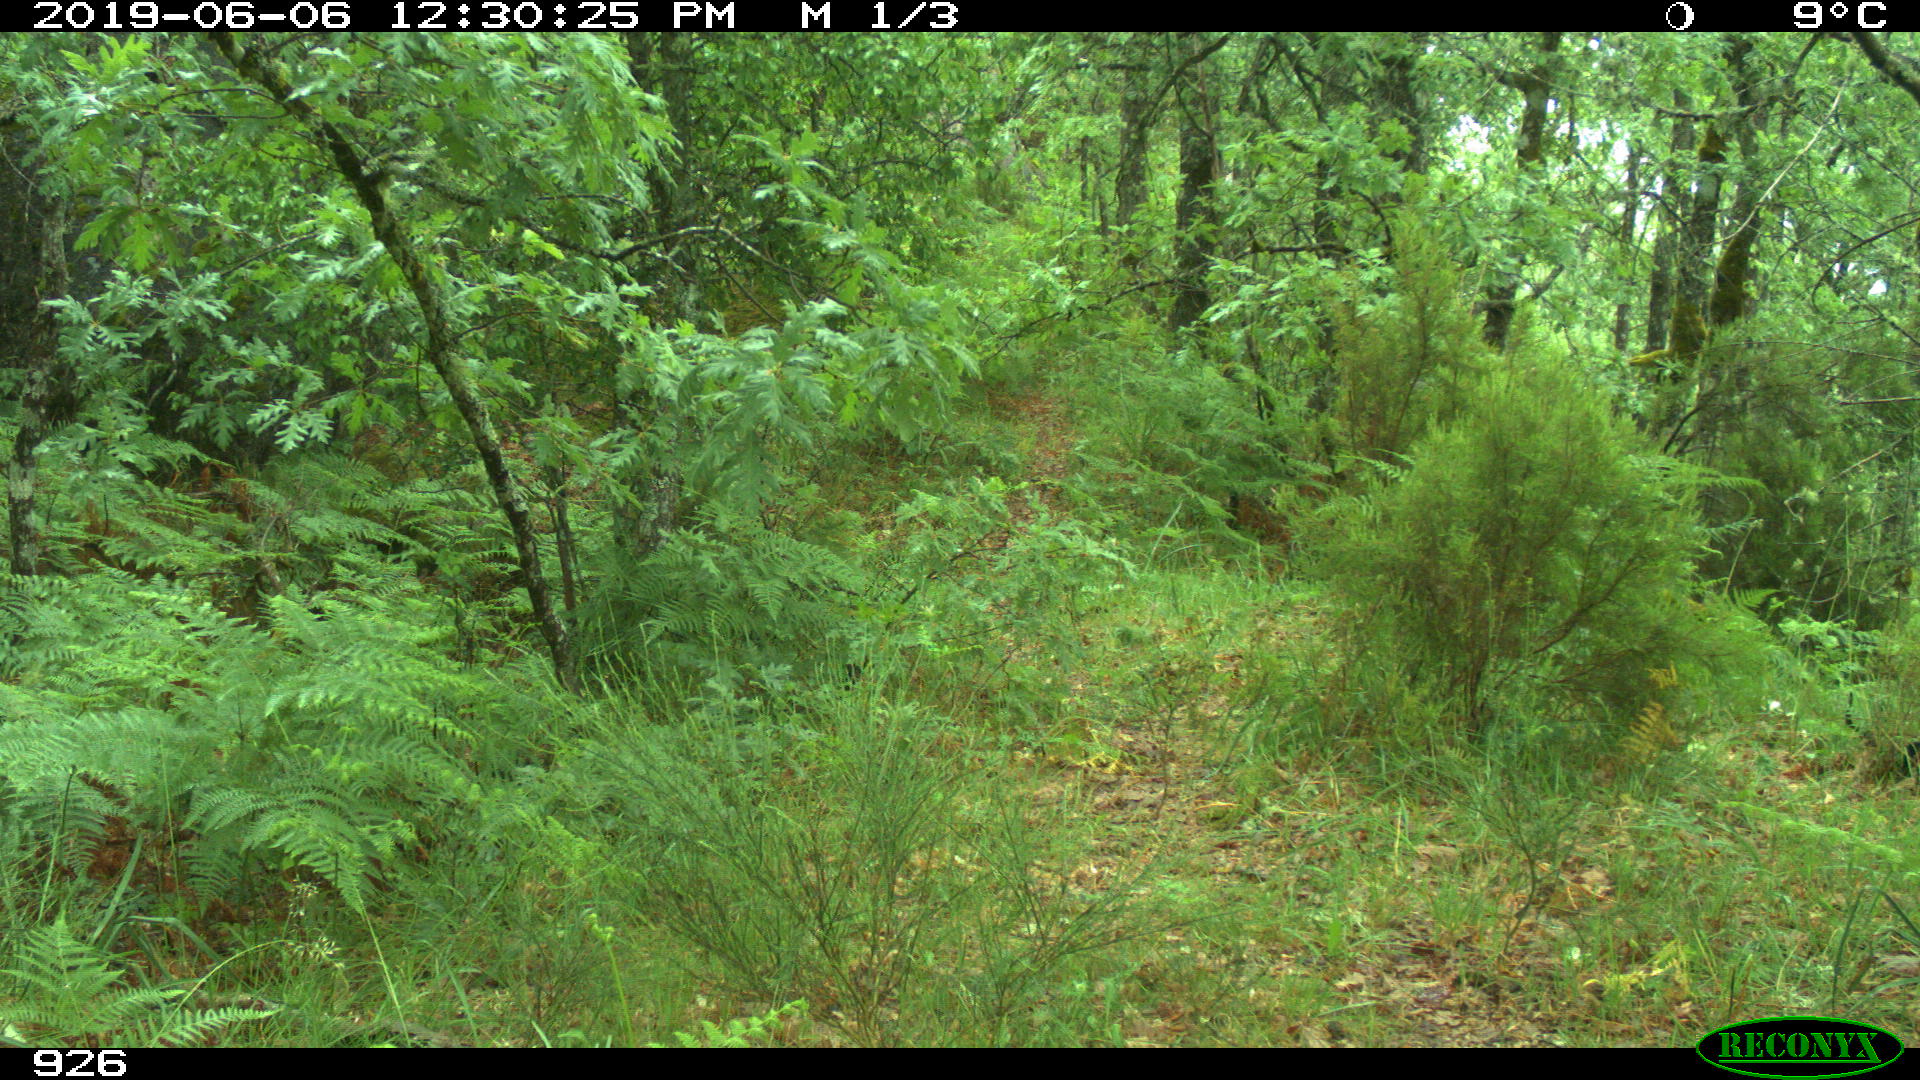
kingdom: Animalia
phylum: Chordata
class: Mammalia
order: Artiodactyla
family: Cervidae
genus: Capreolus
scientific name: Capreolus capreolus
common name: Western roe deer
